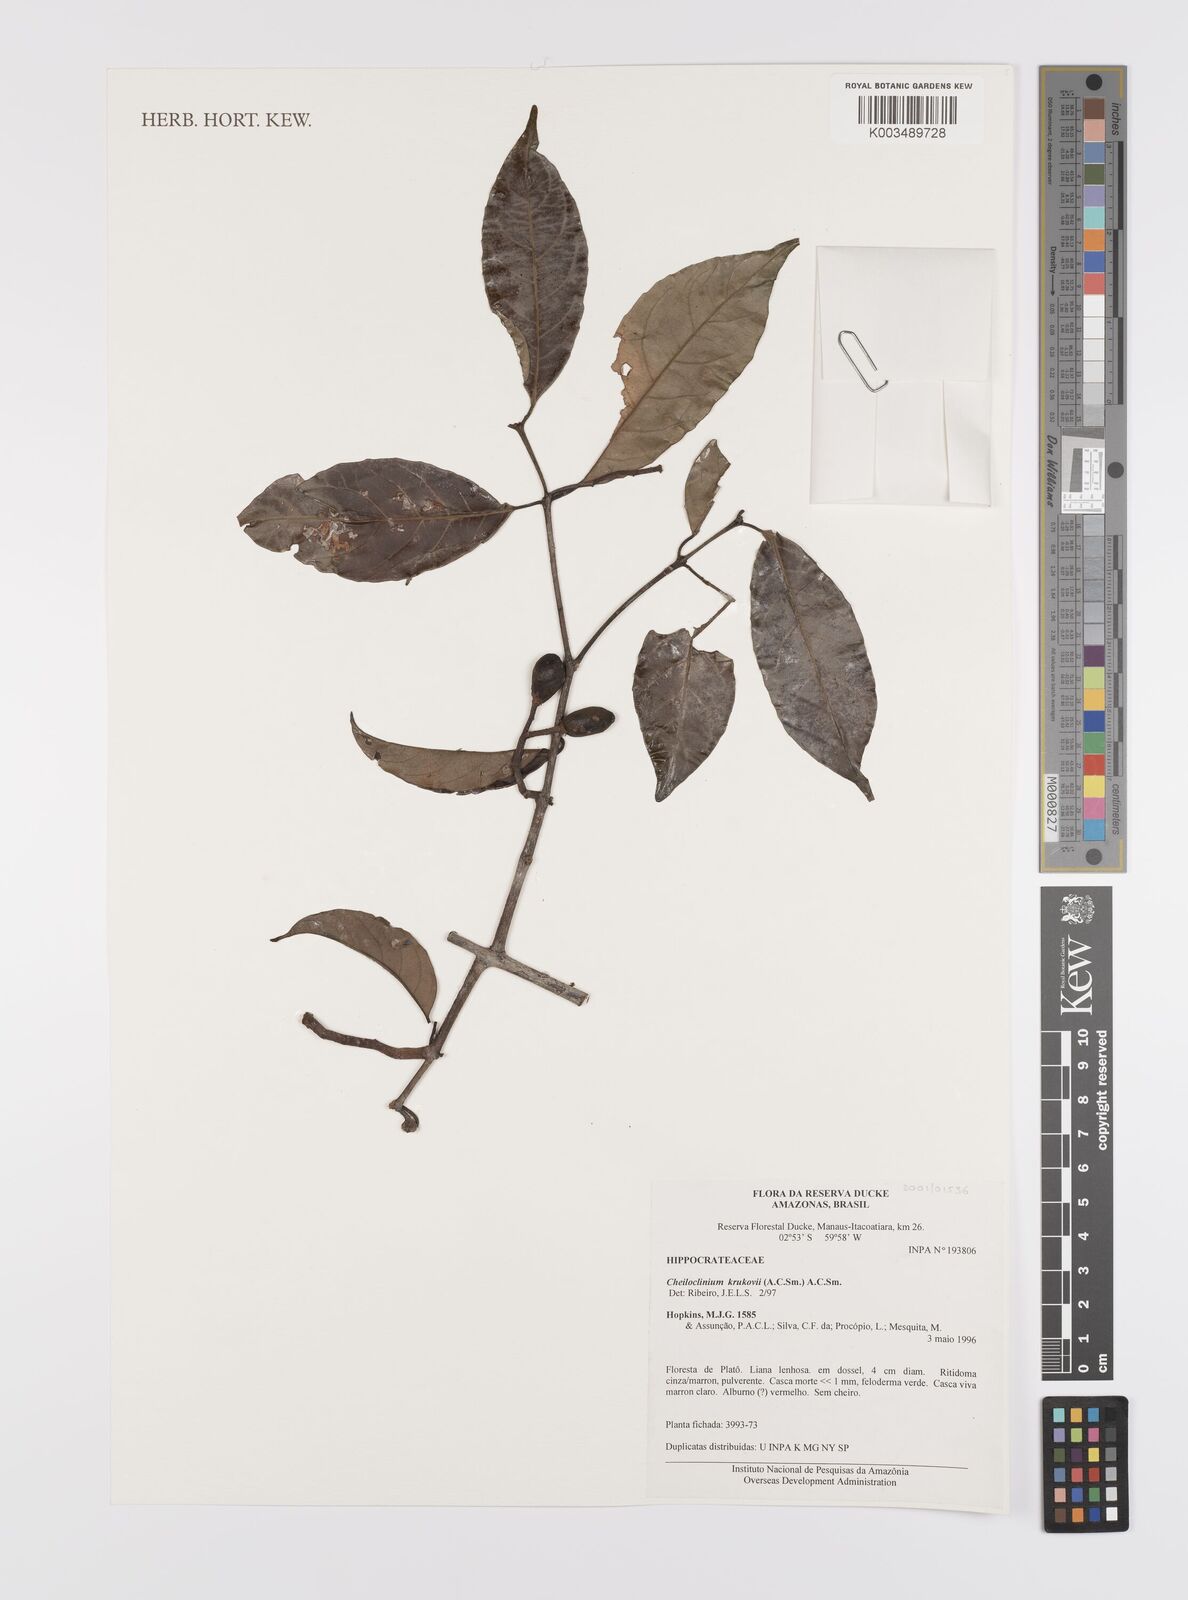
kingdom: Plantae
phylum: Tracheophyta
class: Magnoliopsida
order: Celastrales
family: Celastraceae
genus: Cheiloclinium
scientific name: Cheiloclinium gleasonianum
